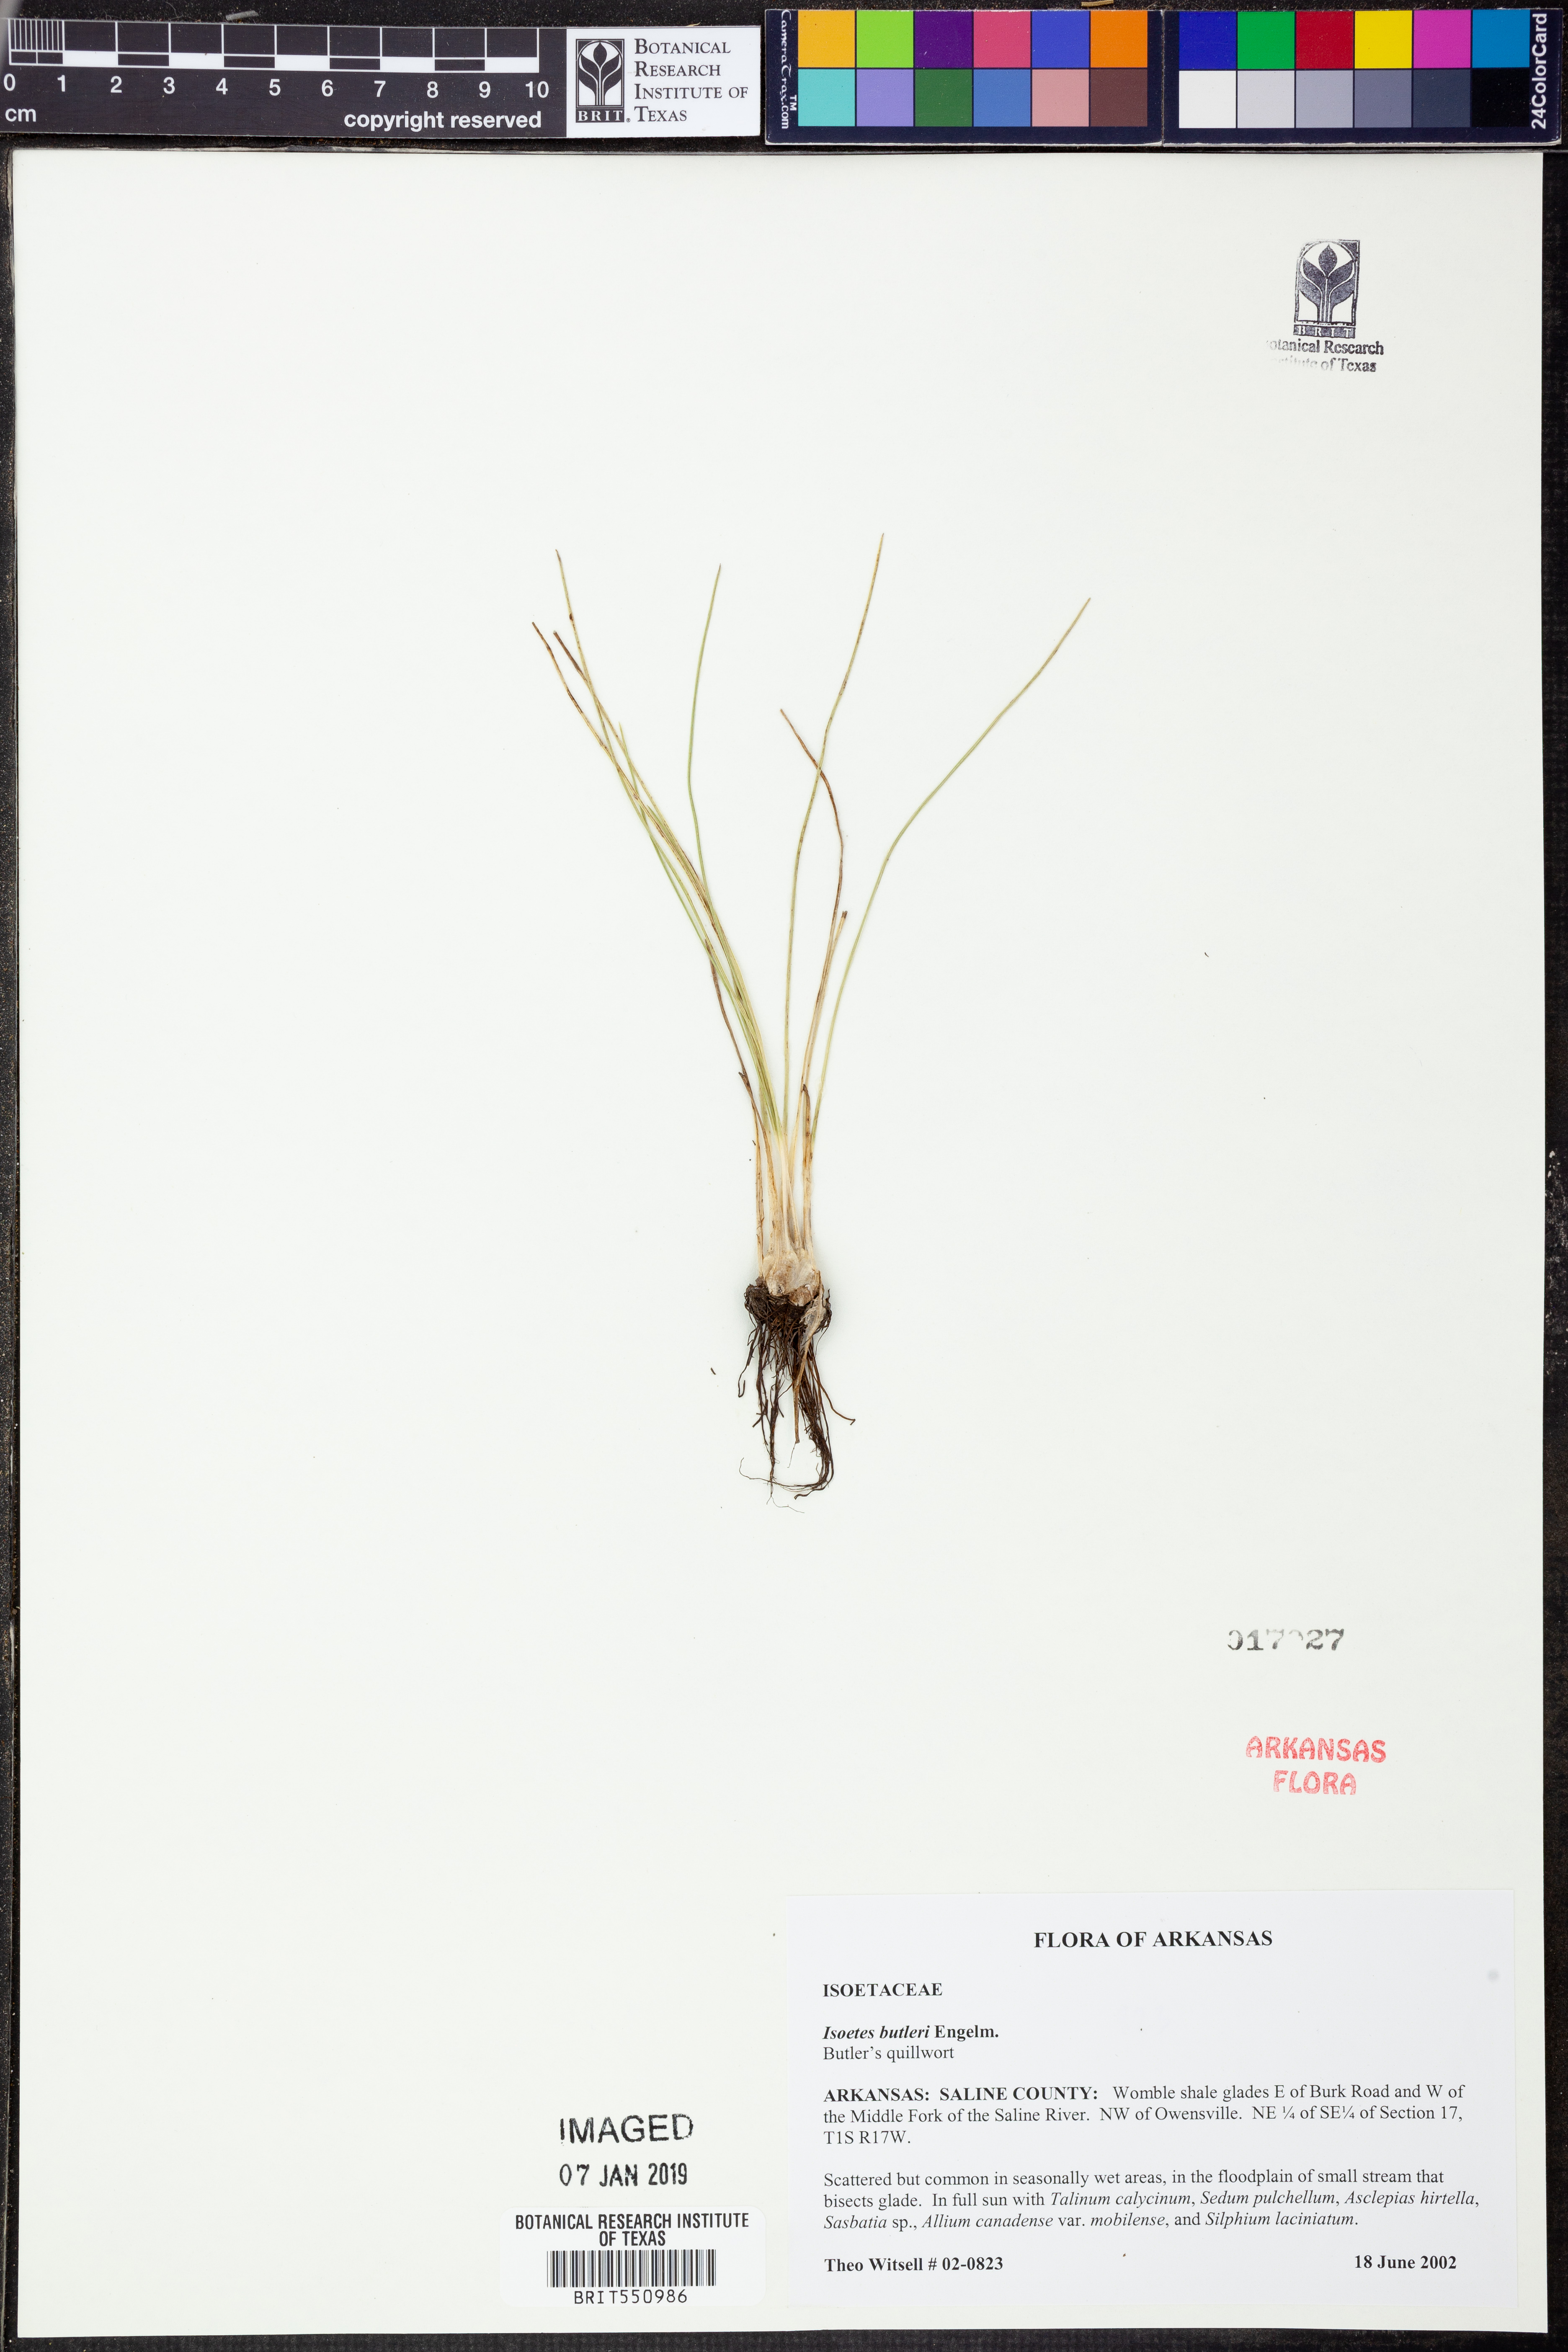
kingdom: Plantae
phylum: Tracheophyta
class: Lycopodiopsida
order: Isoetales
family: Isoetaceae
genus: Isoetes
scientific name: Isoetes butleri
